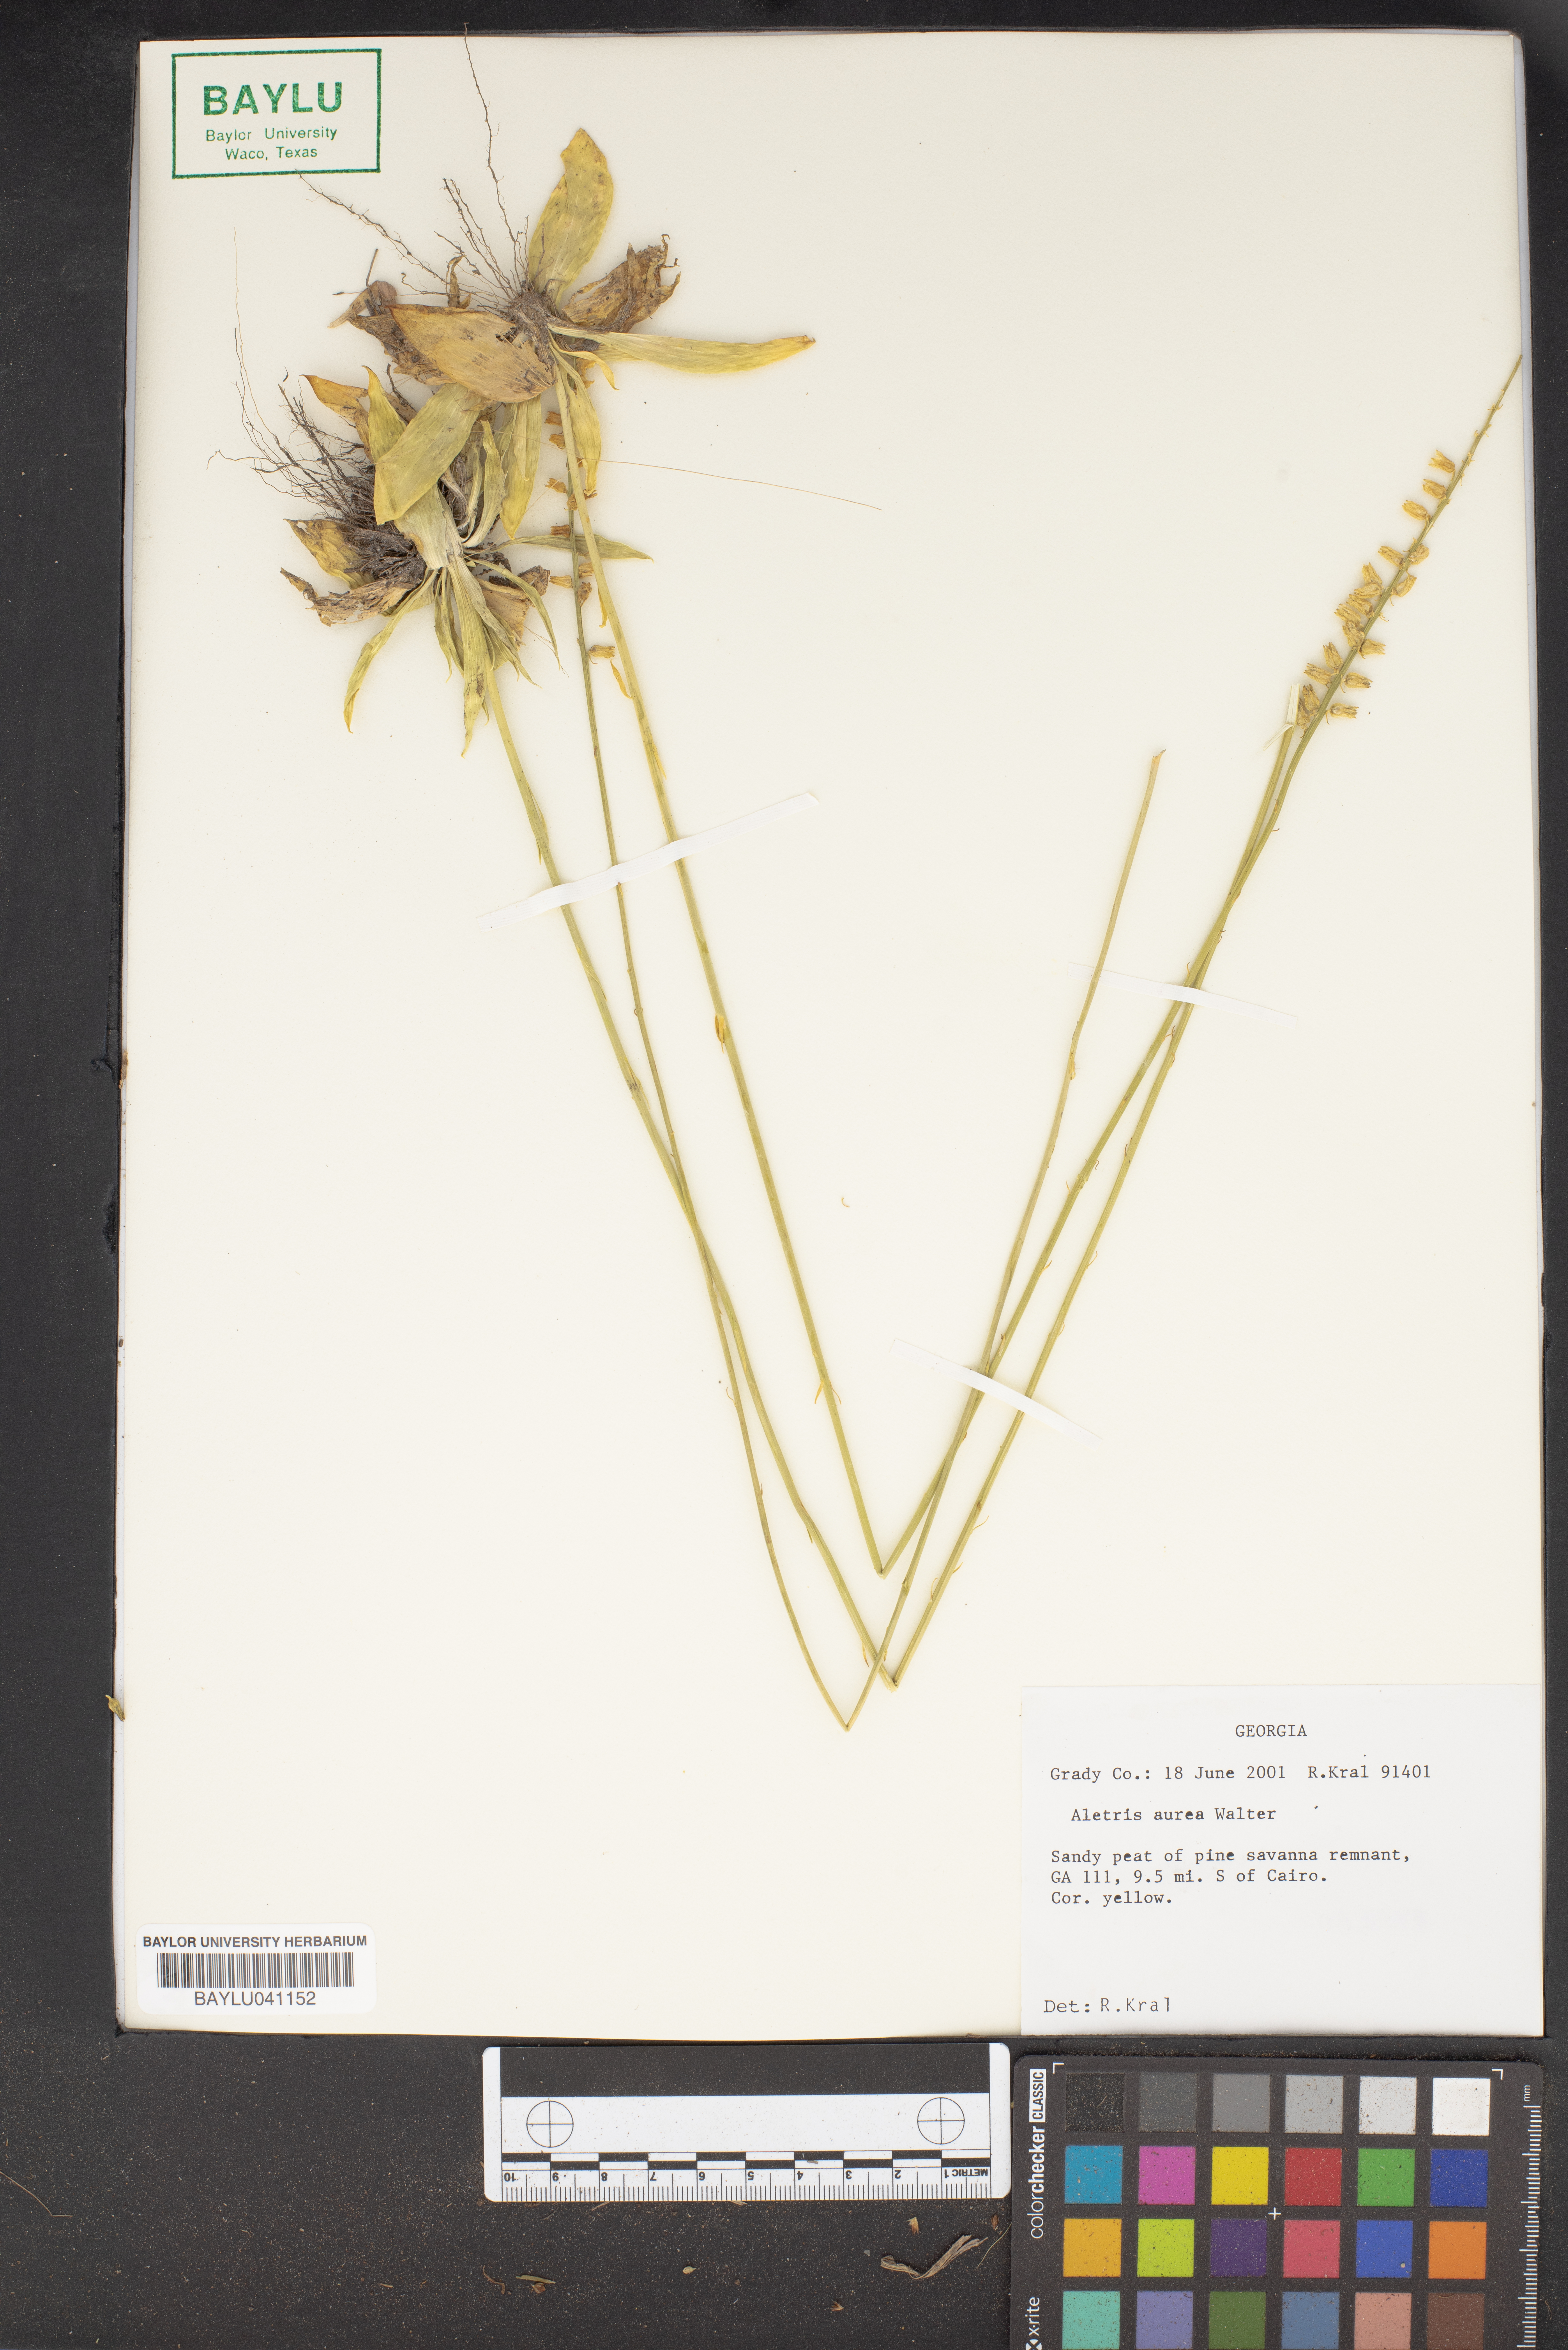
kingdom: Plantae
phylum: Tracheophyta
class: Liliopsida
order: Dioscoreales
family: Nartheciaceae
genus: Aletris
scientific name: Aletris aurea
